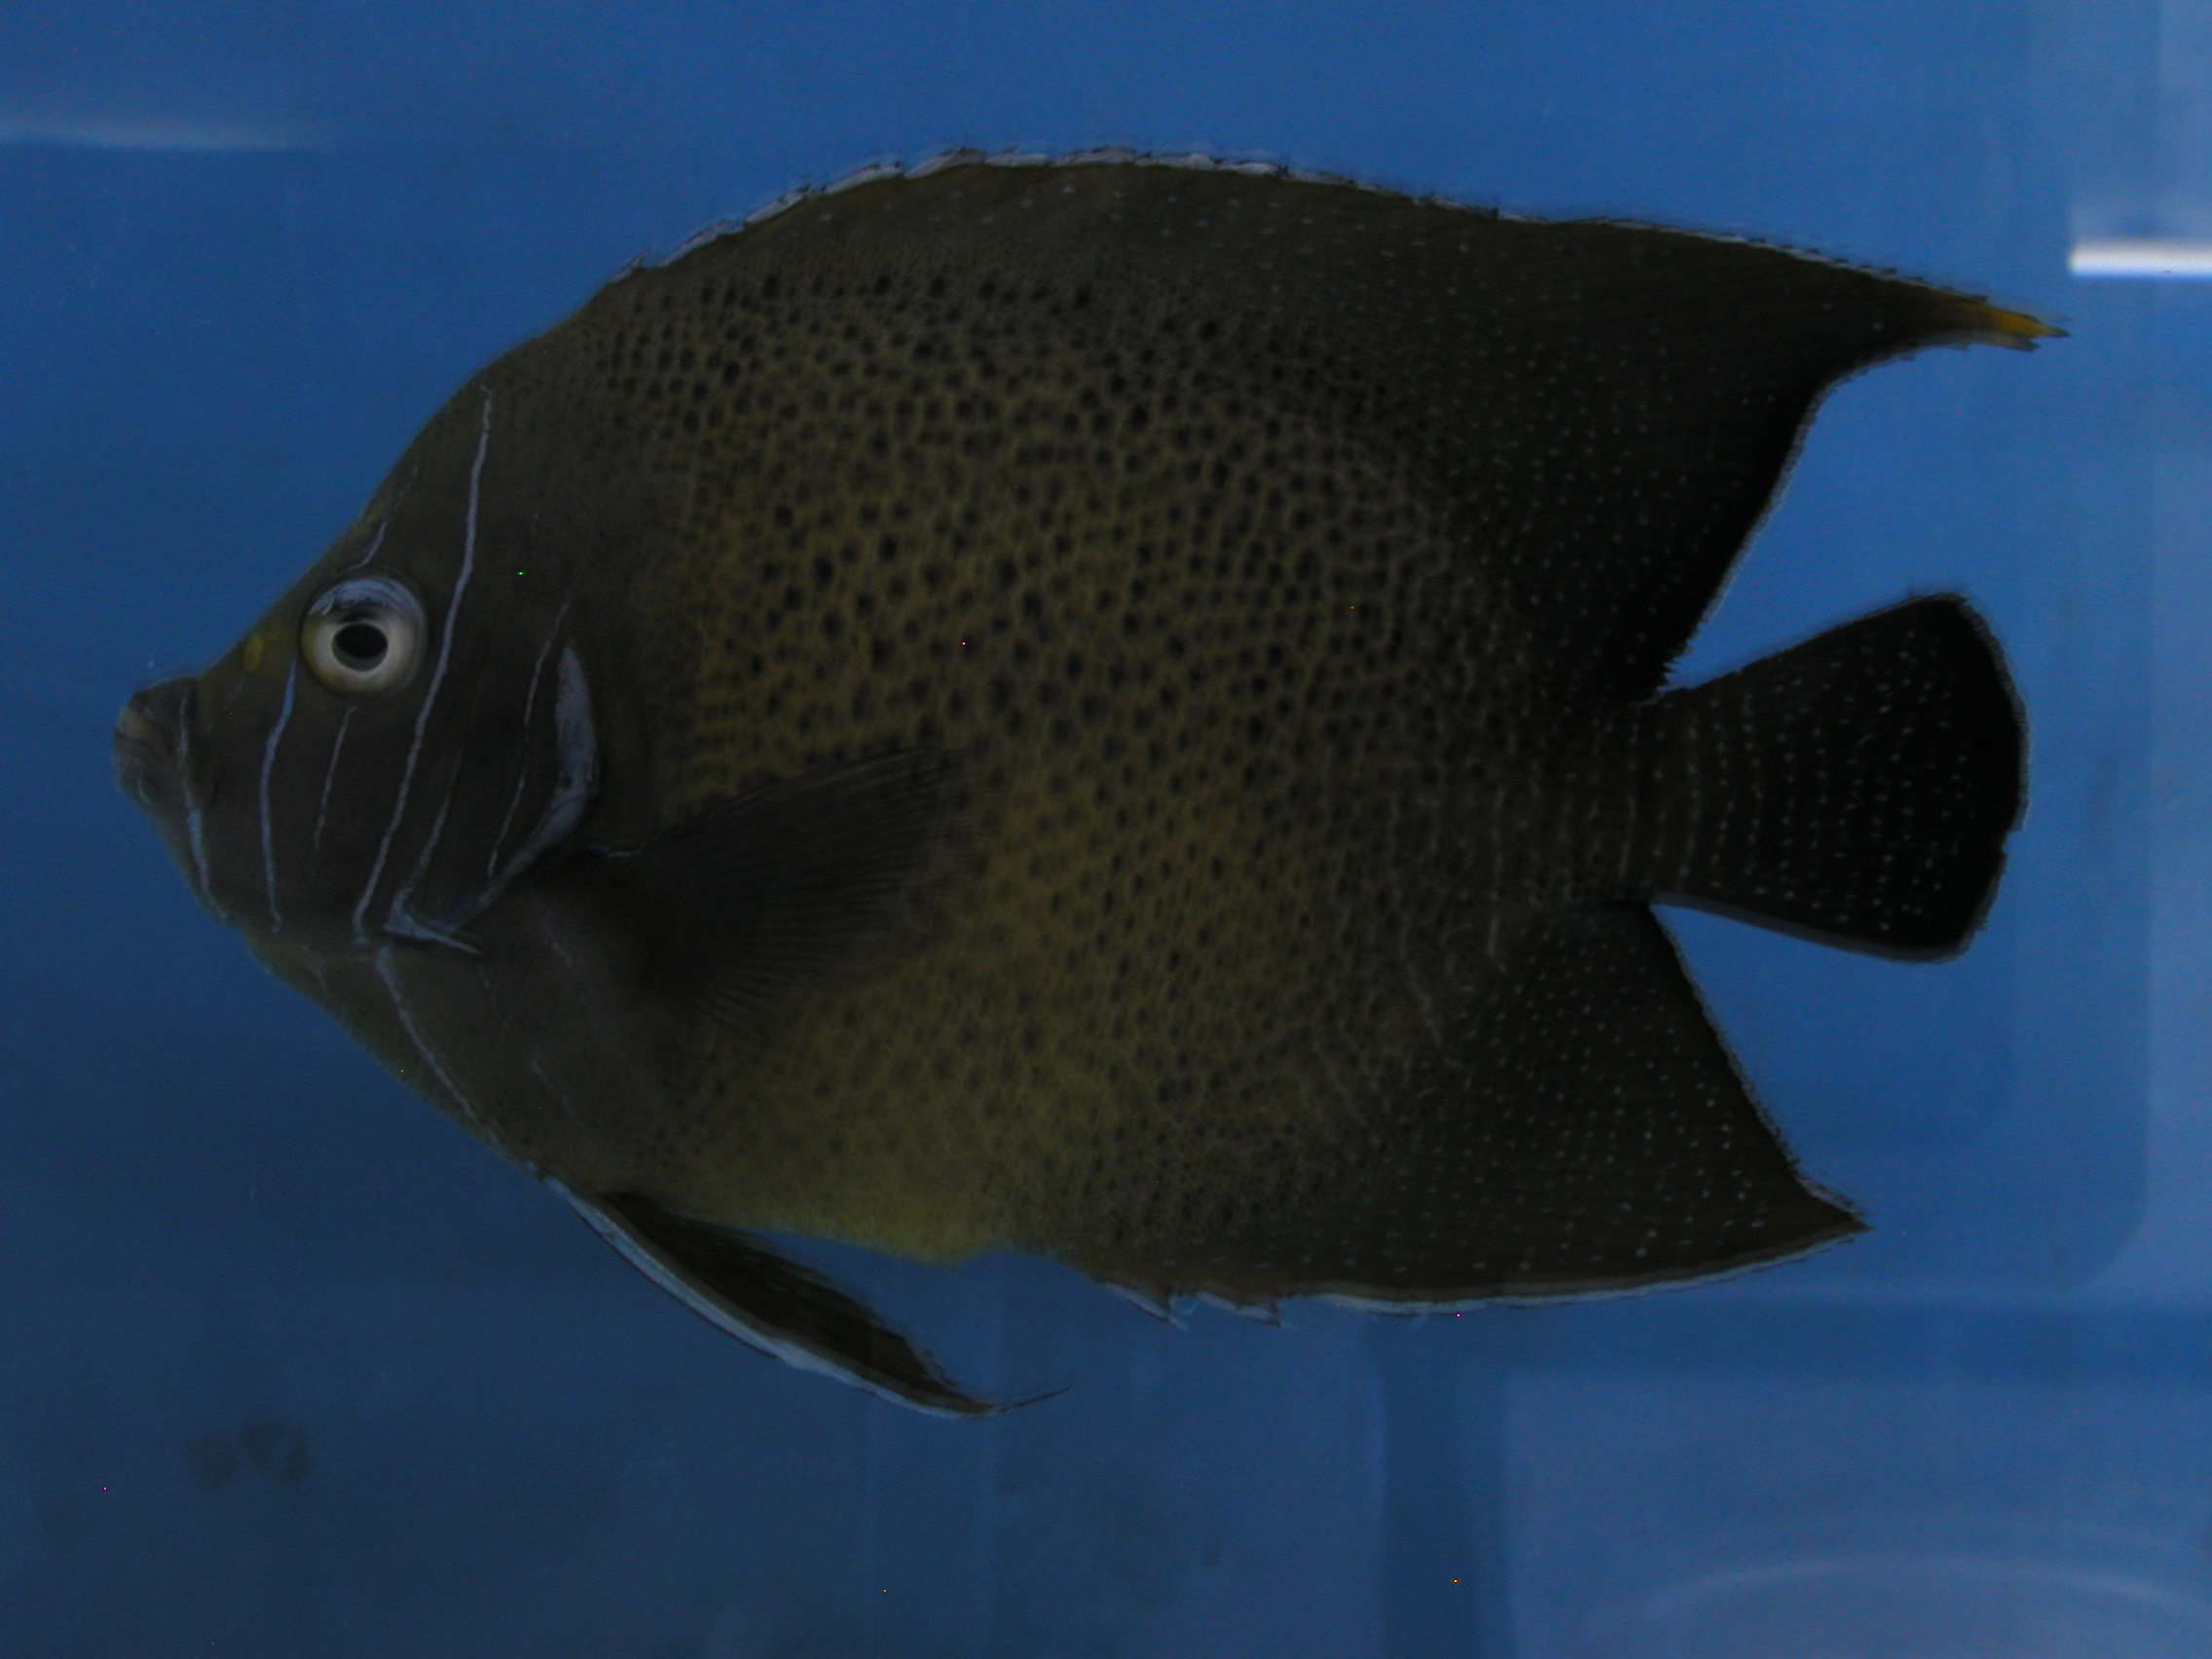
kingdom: Animalia
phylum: Chordata
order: Perciformes
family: Pomacanthidae
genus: Pomacanthus
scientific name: Pomacanthus semicirculatus
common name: Semicircle angelfish
